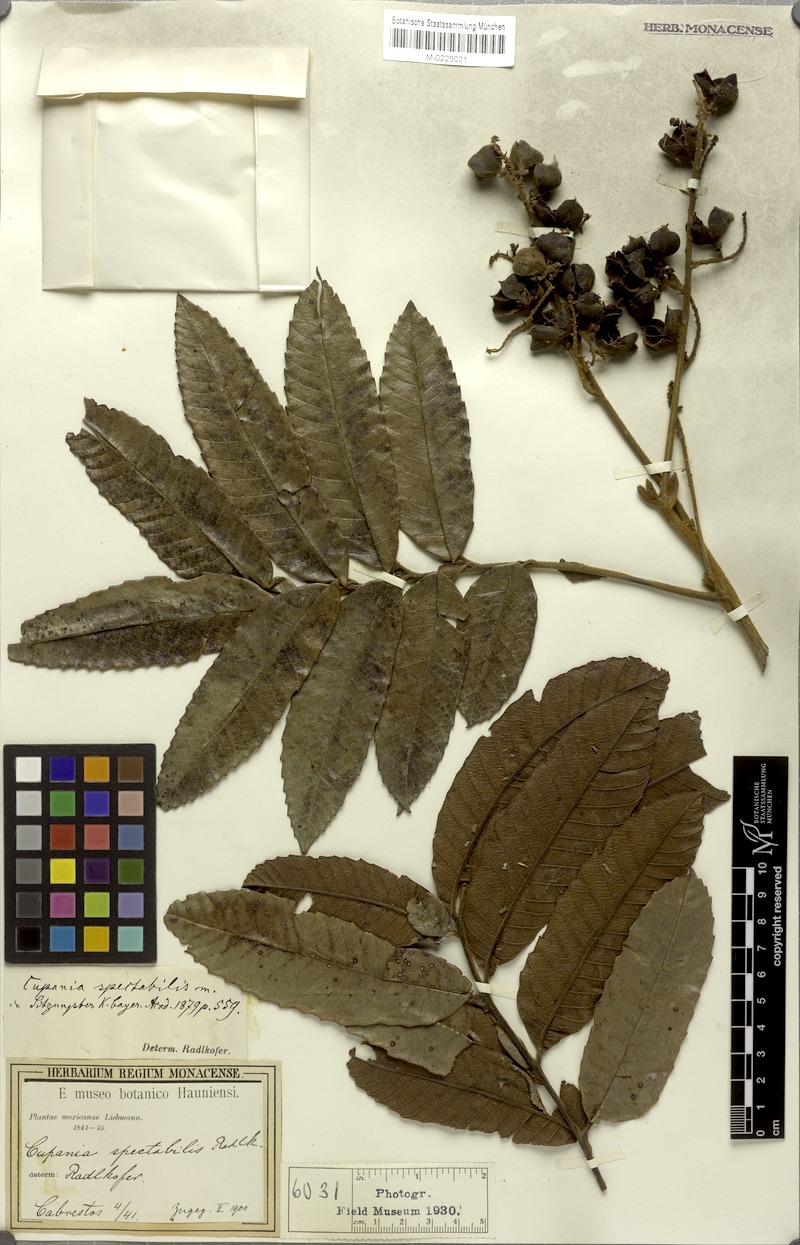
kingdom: Plantae
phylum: Tracheophyta
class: Magnoliopsida
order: Sapindales
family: Sapindaceae
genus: Cupania
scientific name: Cupania spectabilis
